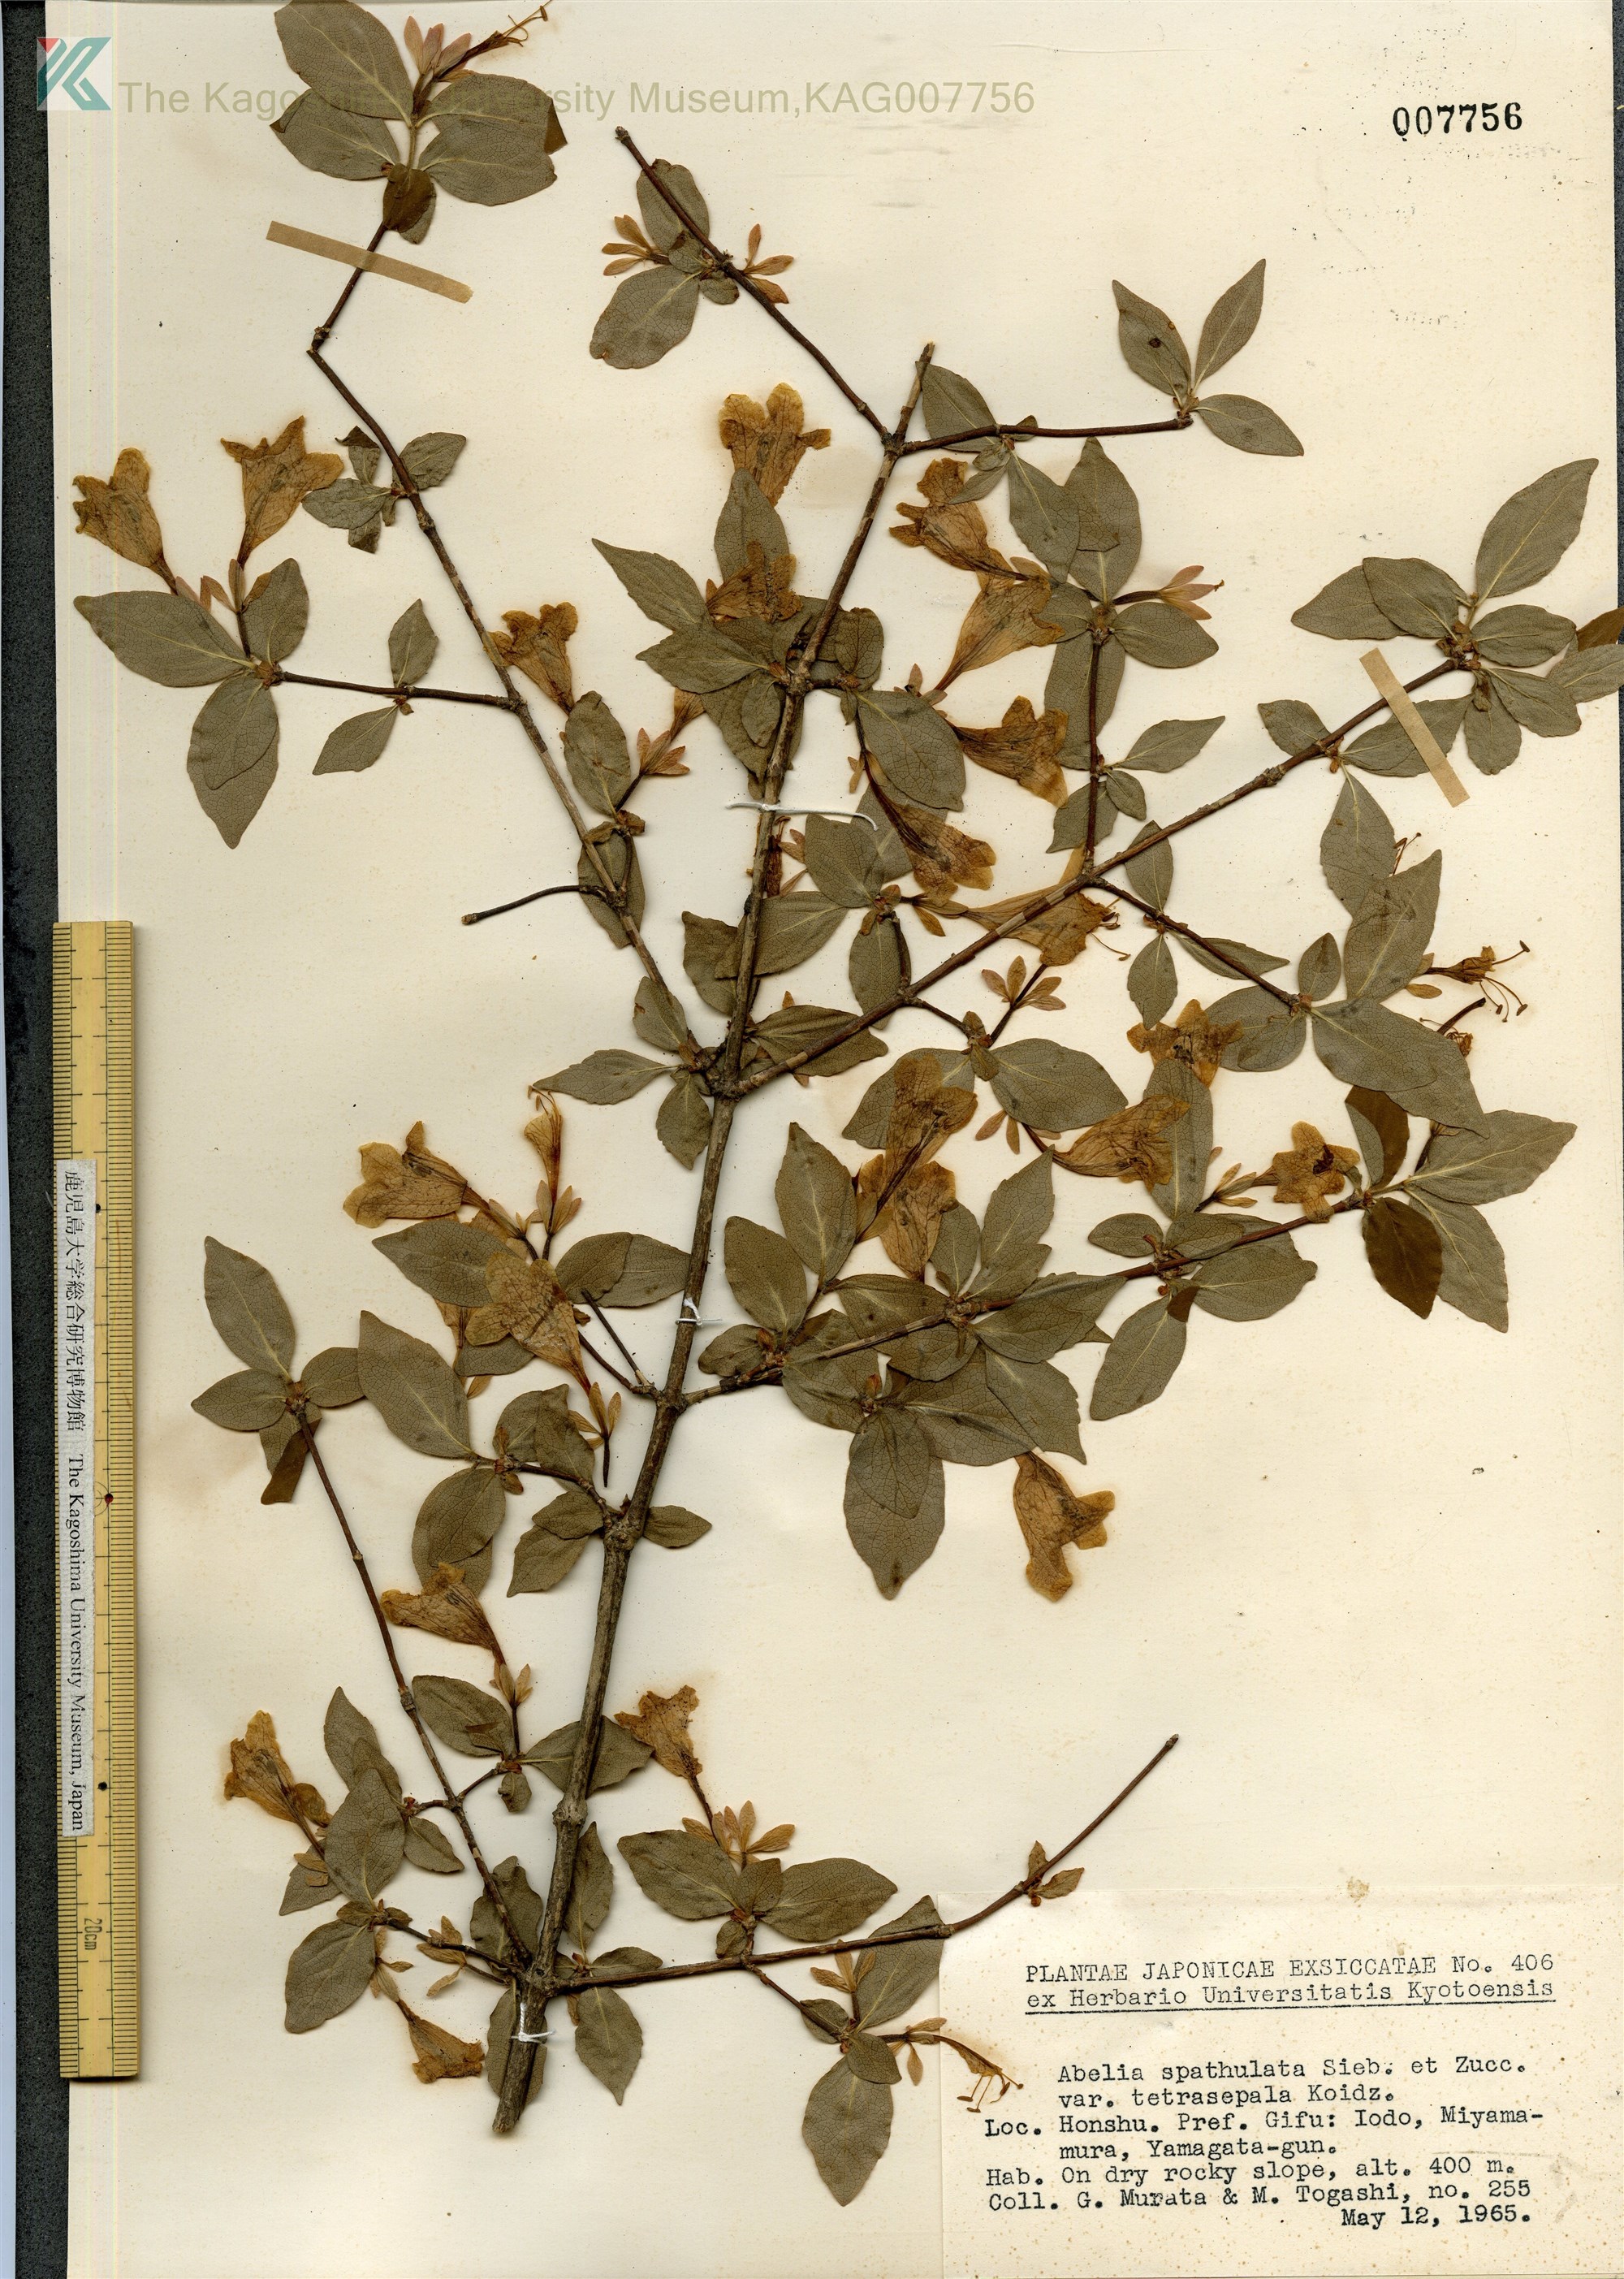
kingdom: Plantae
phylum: Tracheophyta
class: Magnoliopsida
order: Dipsacales
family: Caprifoliaceae
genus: Diabelia
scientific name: Diabelia spathulata
